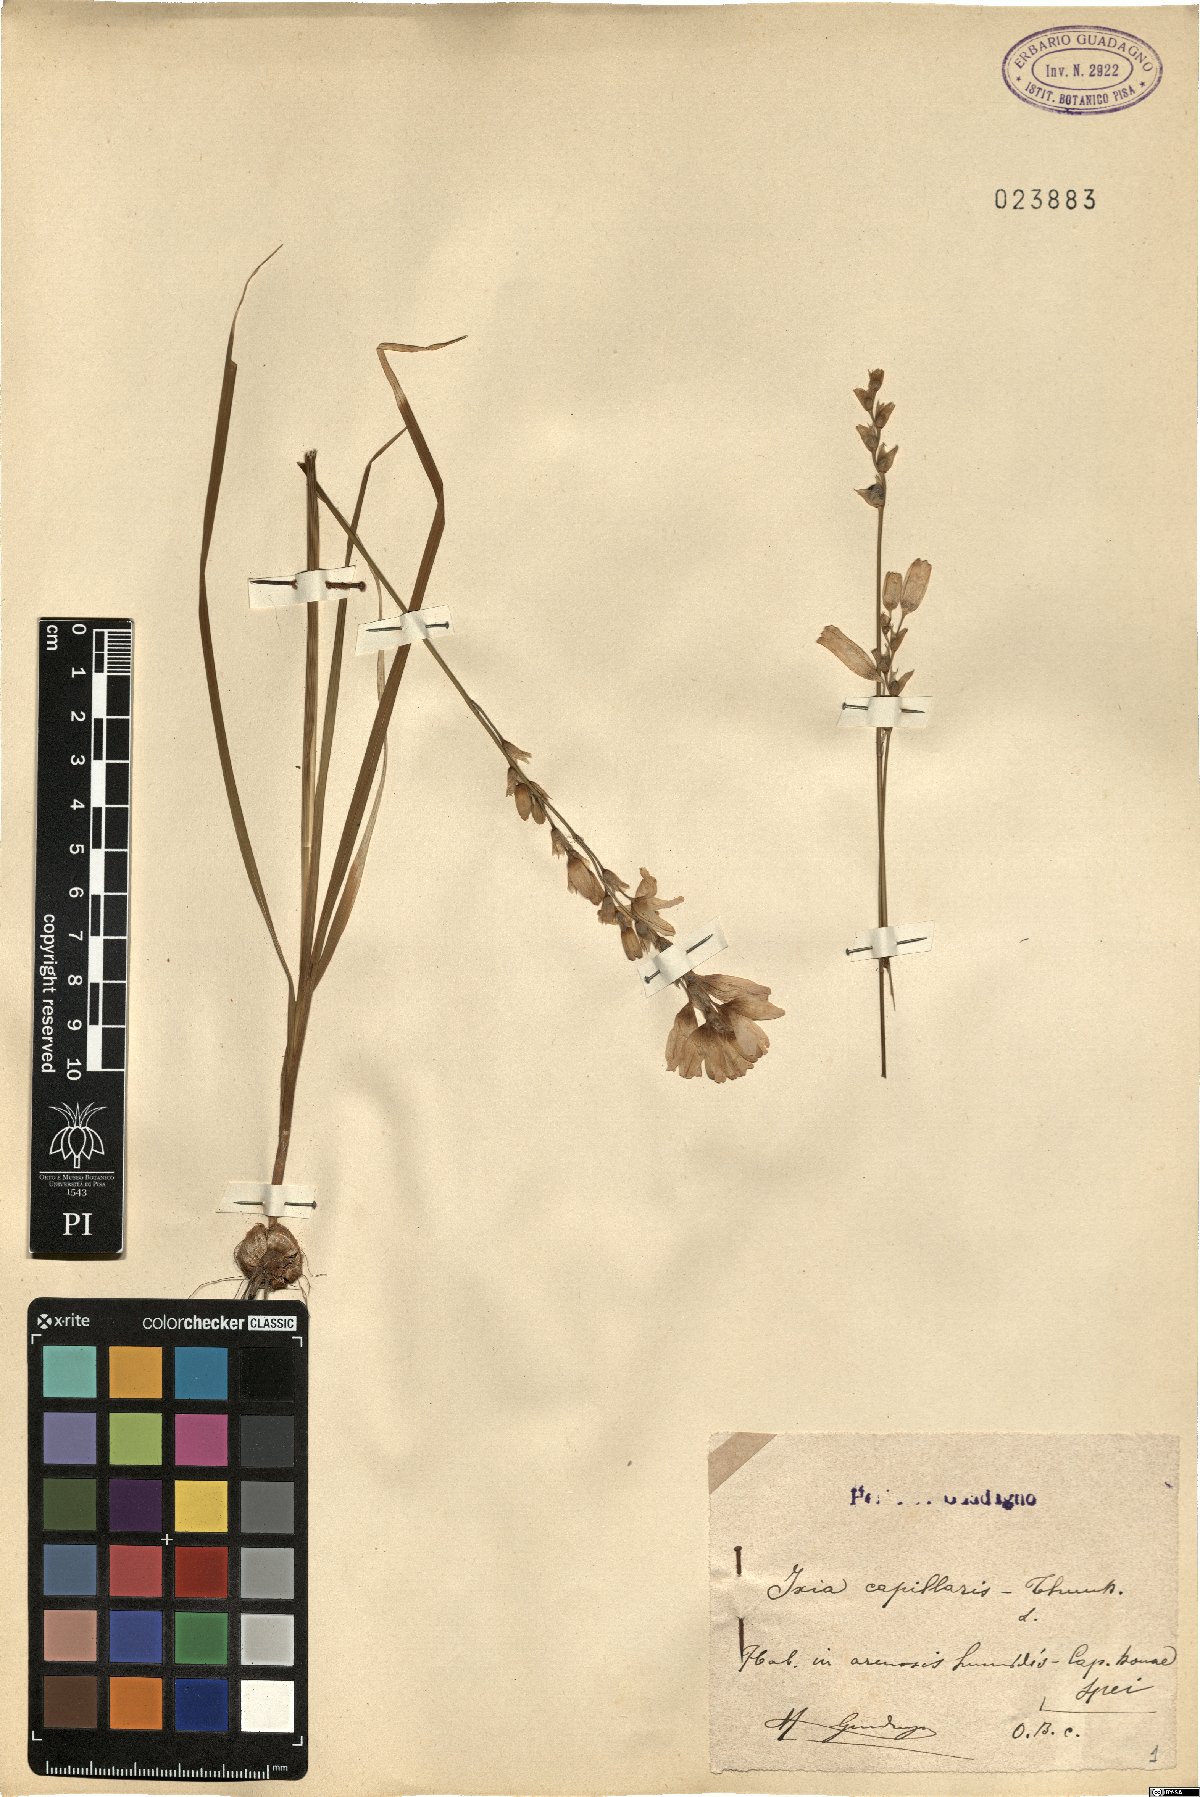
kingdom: Plantae
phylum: Tracheophyta
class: Liliopsida
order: Asparagales
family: Iridaceae
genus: Ixia
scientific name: Ixia capillaris
